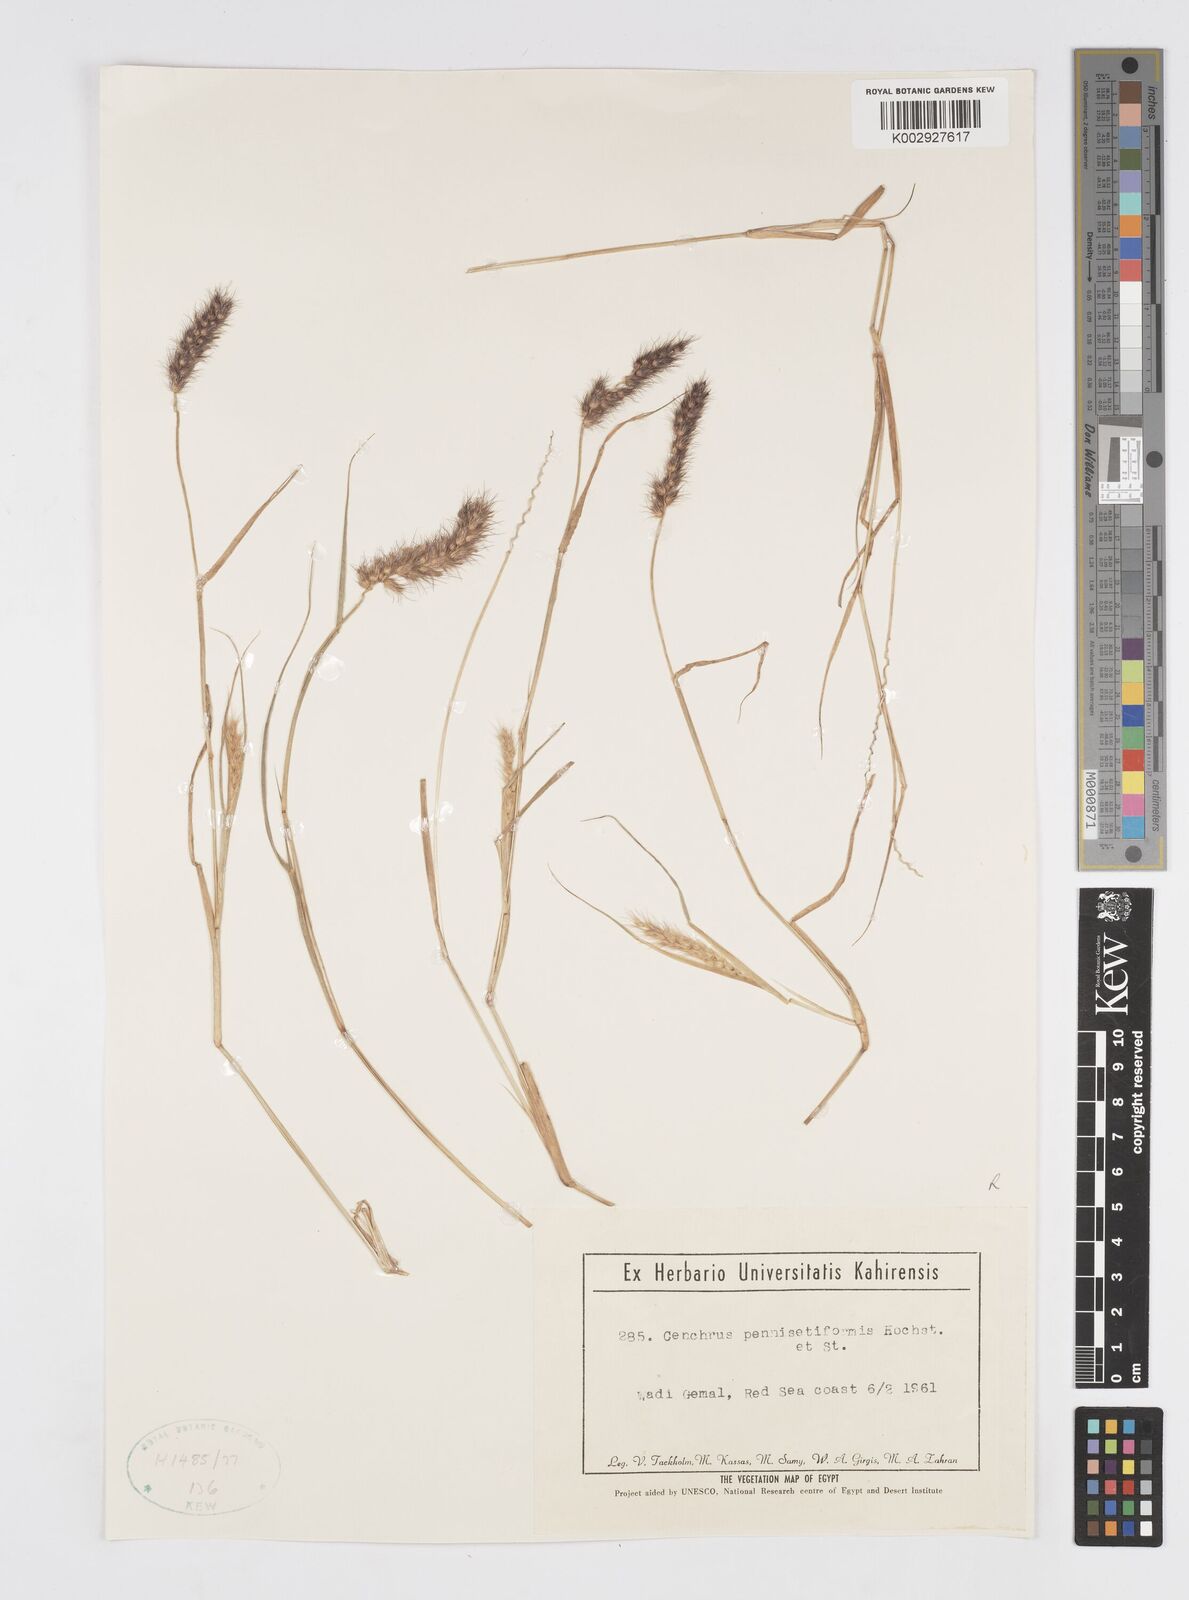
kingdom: Plantae
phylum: Tracheophyta
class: Liliopsida
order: Poales
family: Poaceae
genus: Cenchrus
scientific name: Cenchrus pennisetiformis
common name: Cloncurry
